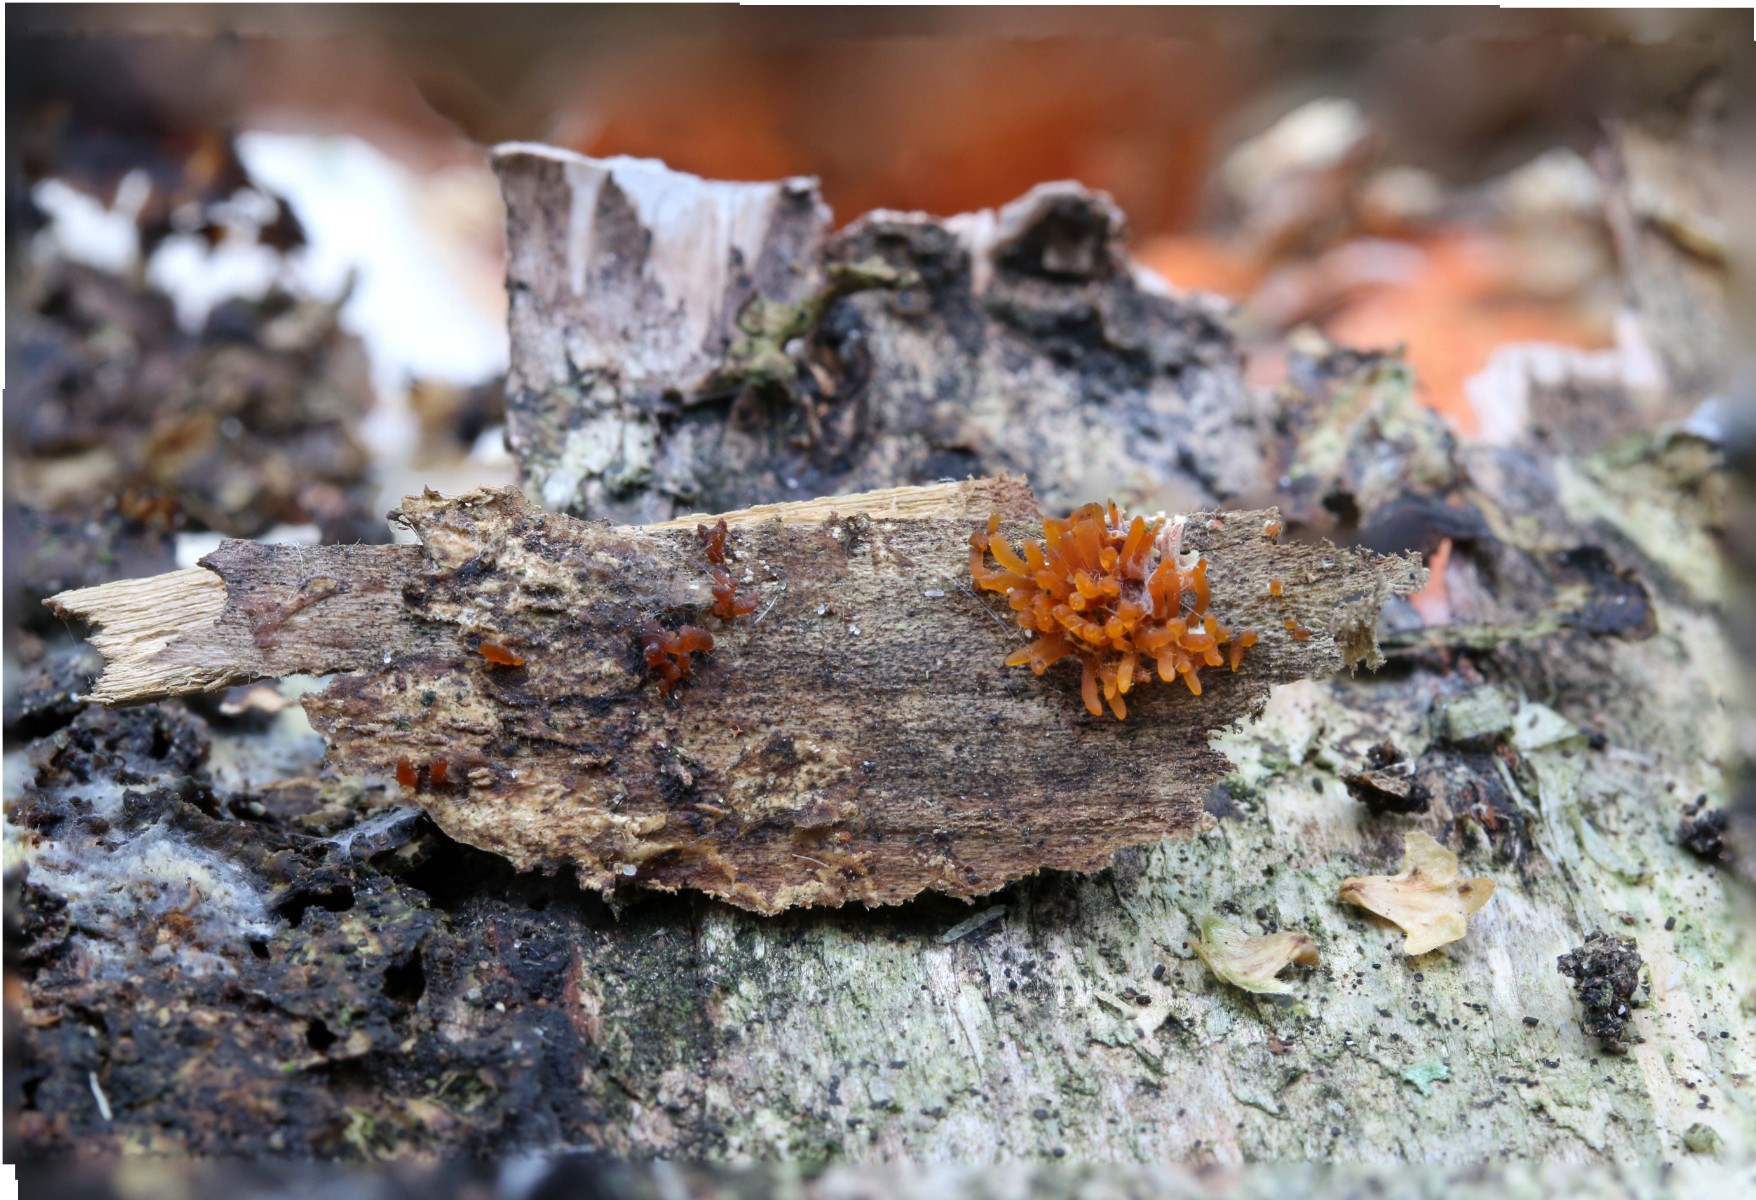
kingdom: Fungi
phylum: Basidiomycota
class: Dacrymycetes
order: Dacrymycetales
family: Dacrymycetaceae
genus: Calocera
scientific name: Calocera cornea
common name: liden guldgaffel
